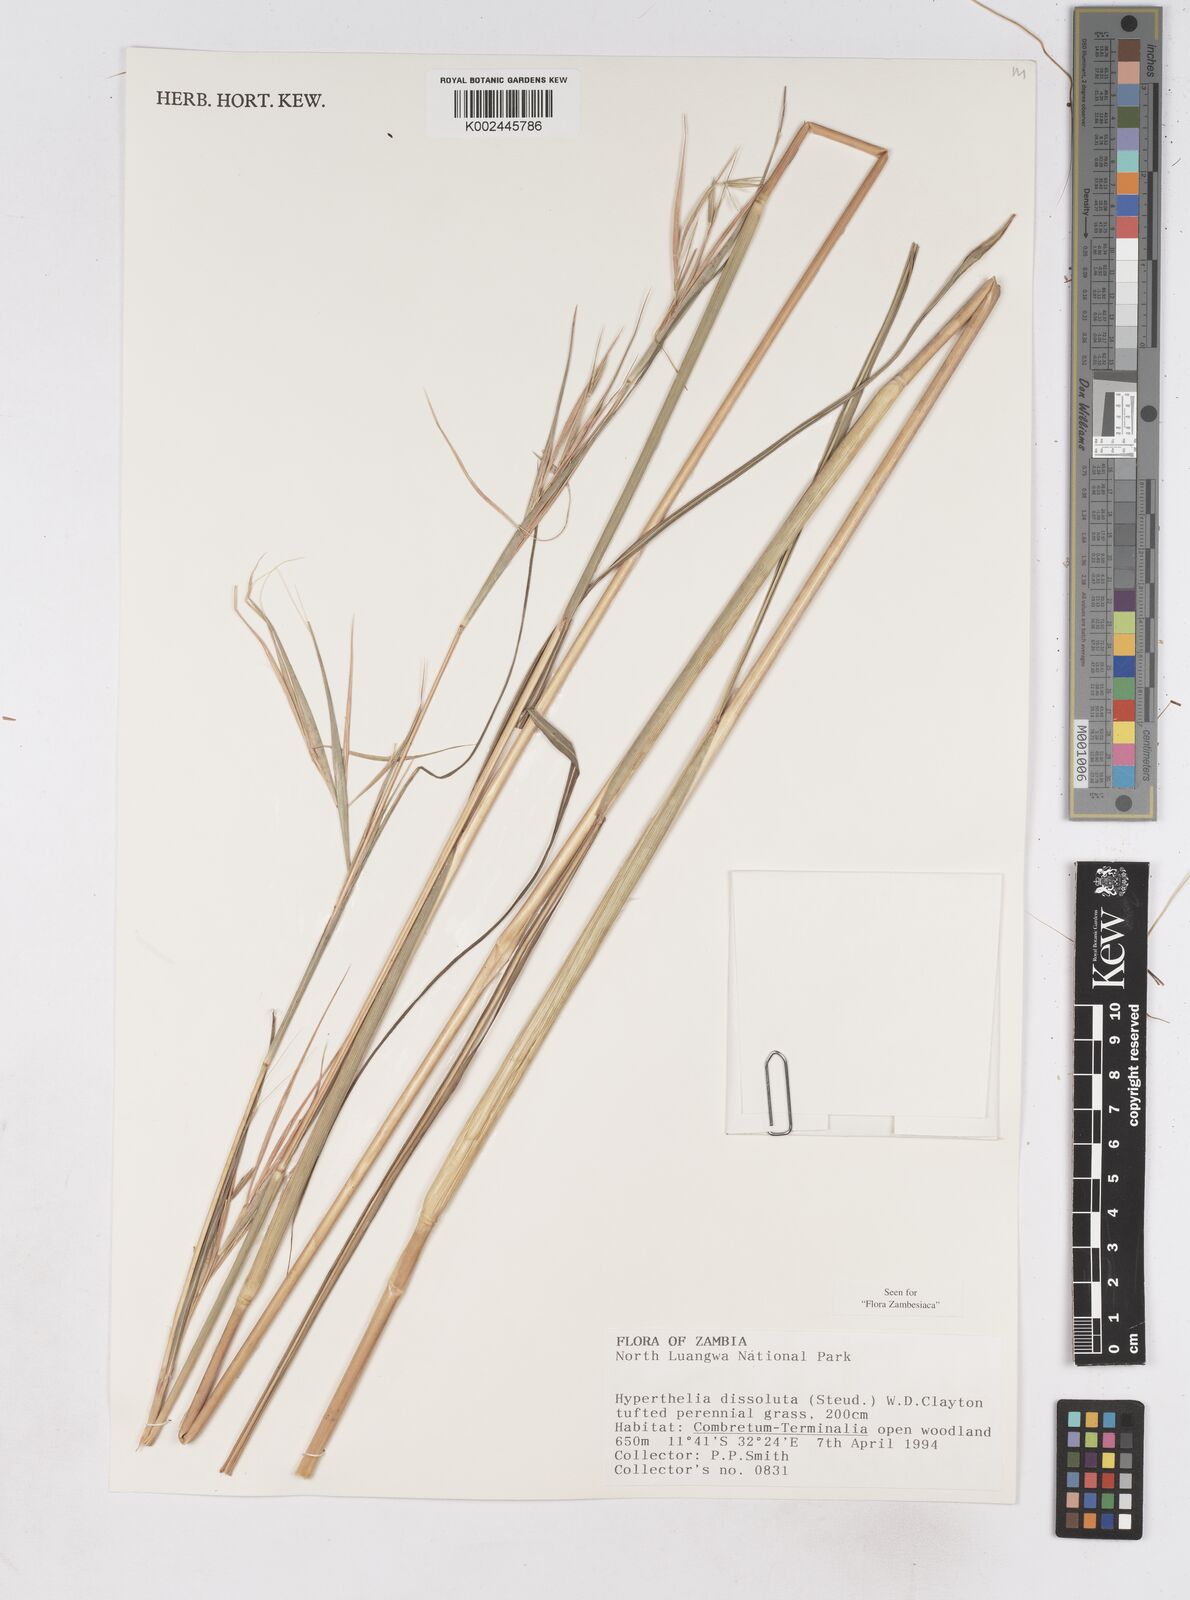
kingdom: Plantae
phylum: Tracheophyta
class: Liliopsida
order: Poales
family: Poaceae
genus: Hyperthelia
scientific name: Hyperthelia dissoluta
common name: Yellow thatching grass
